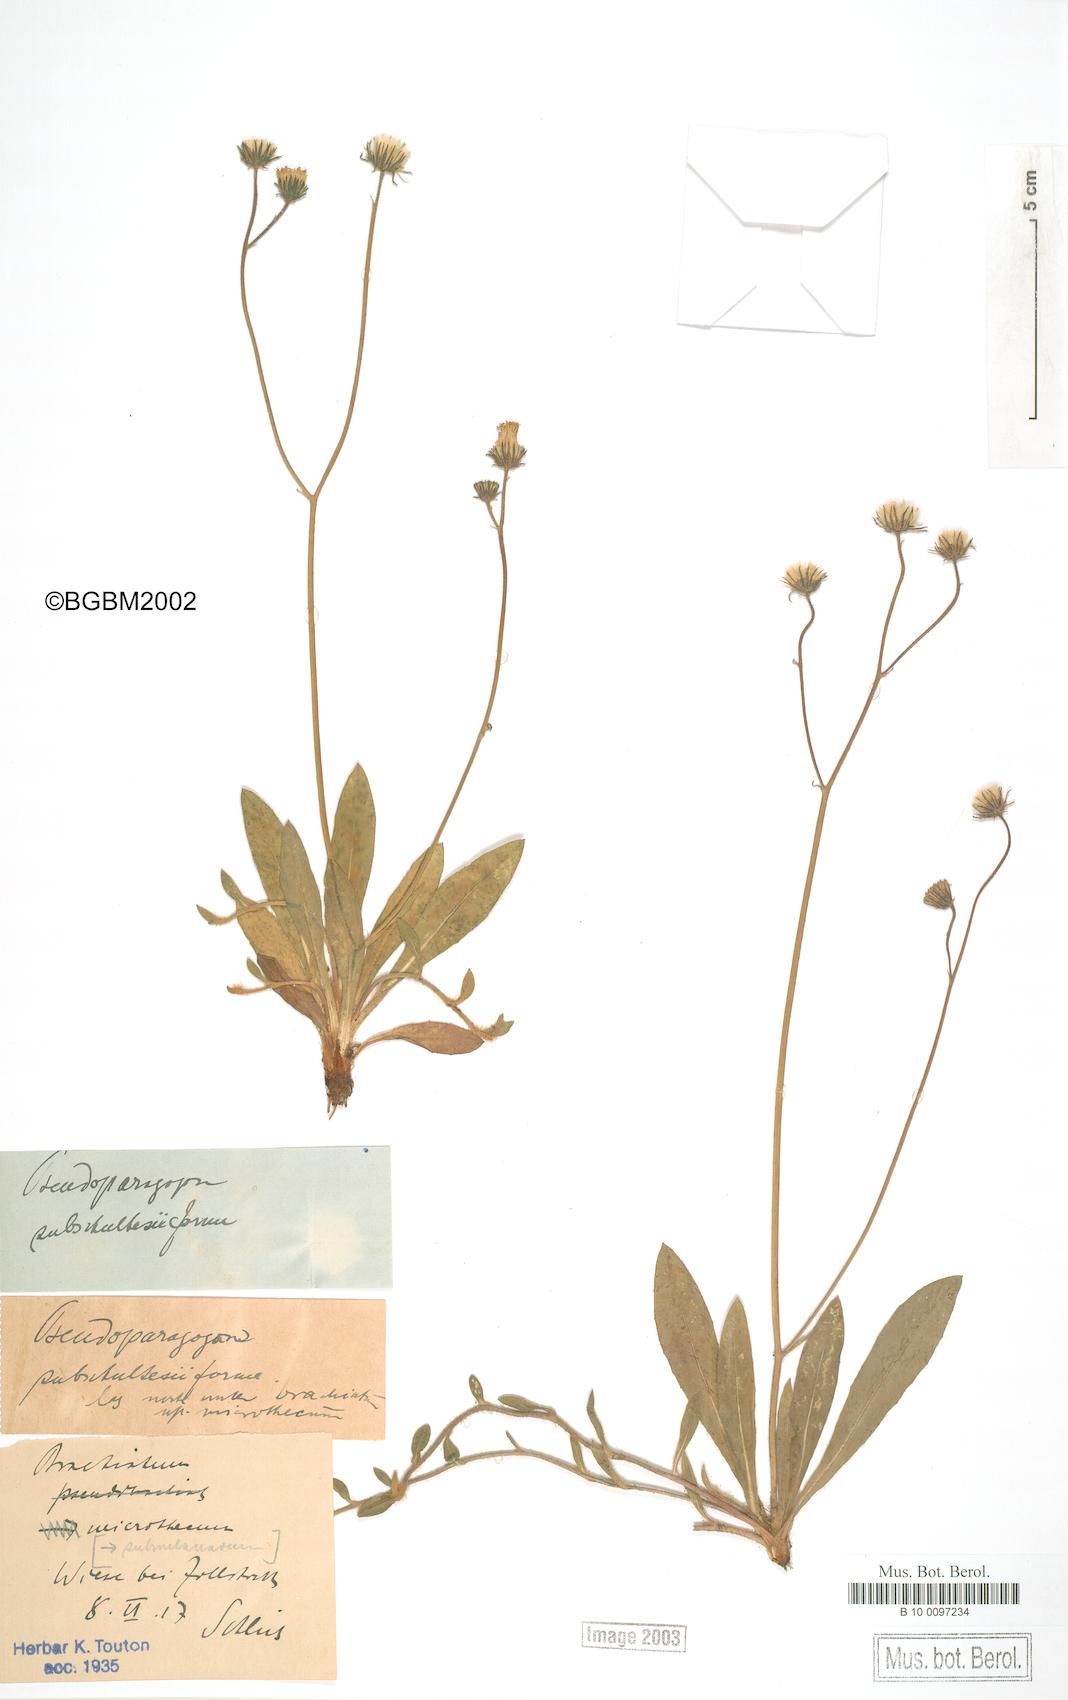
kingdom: Plantae
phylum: Tracheophyta
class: Magnoliopsida
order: Asterales
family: Asteraceae
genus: Pilosella
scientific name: Pilosella acutifolia
